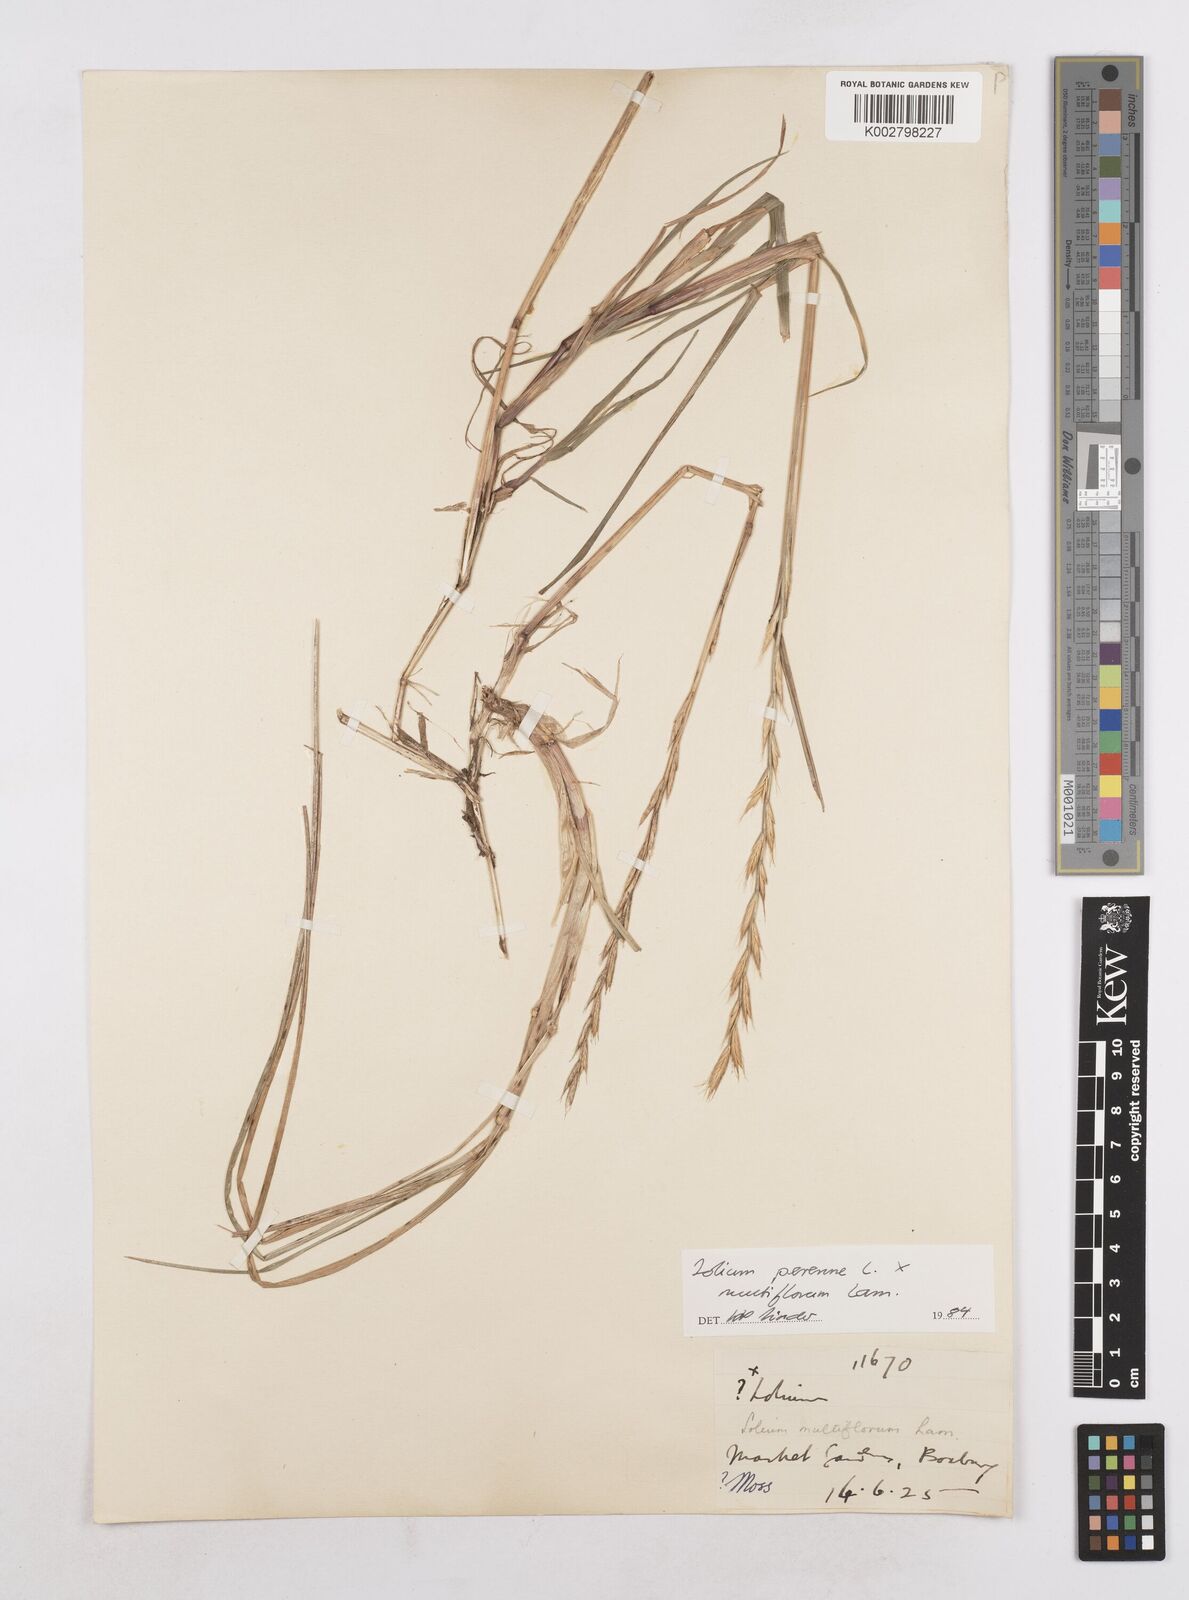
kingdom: Plantae
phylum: Tracheophyta
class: Liliopsida
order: Poales
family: Poaceae
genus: Lolium
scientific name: Lolium multiflorum
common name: Annual ryegrass
